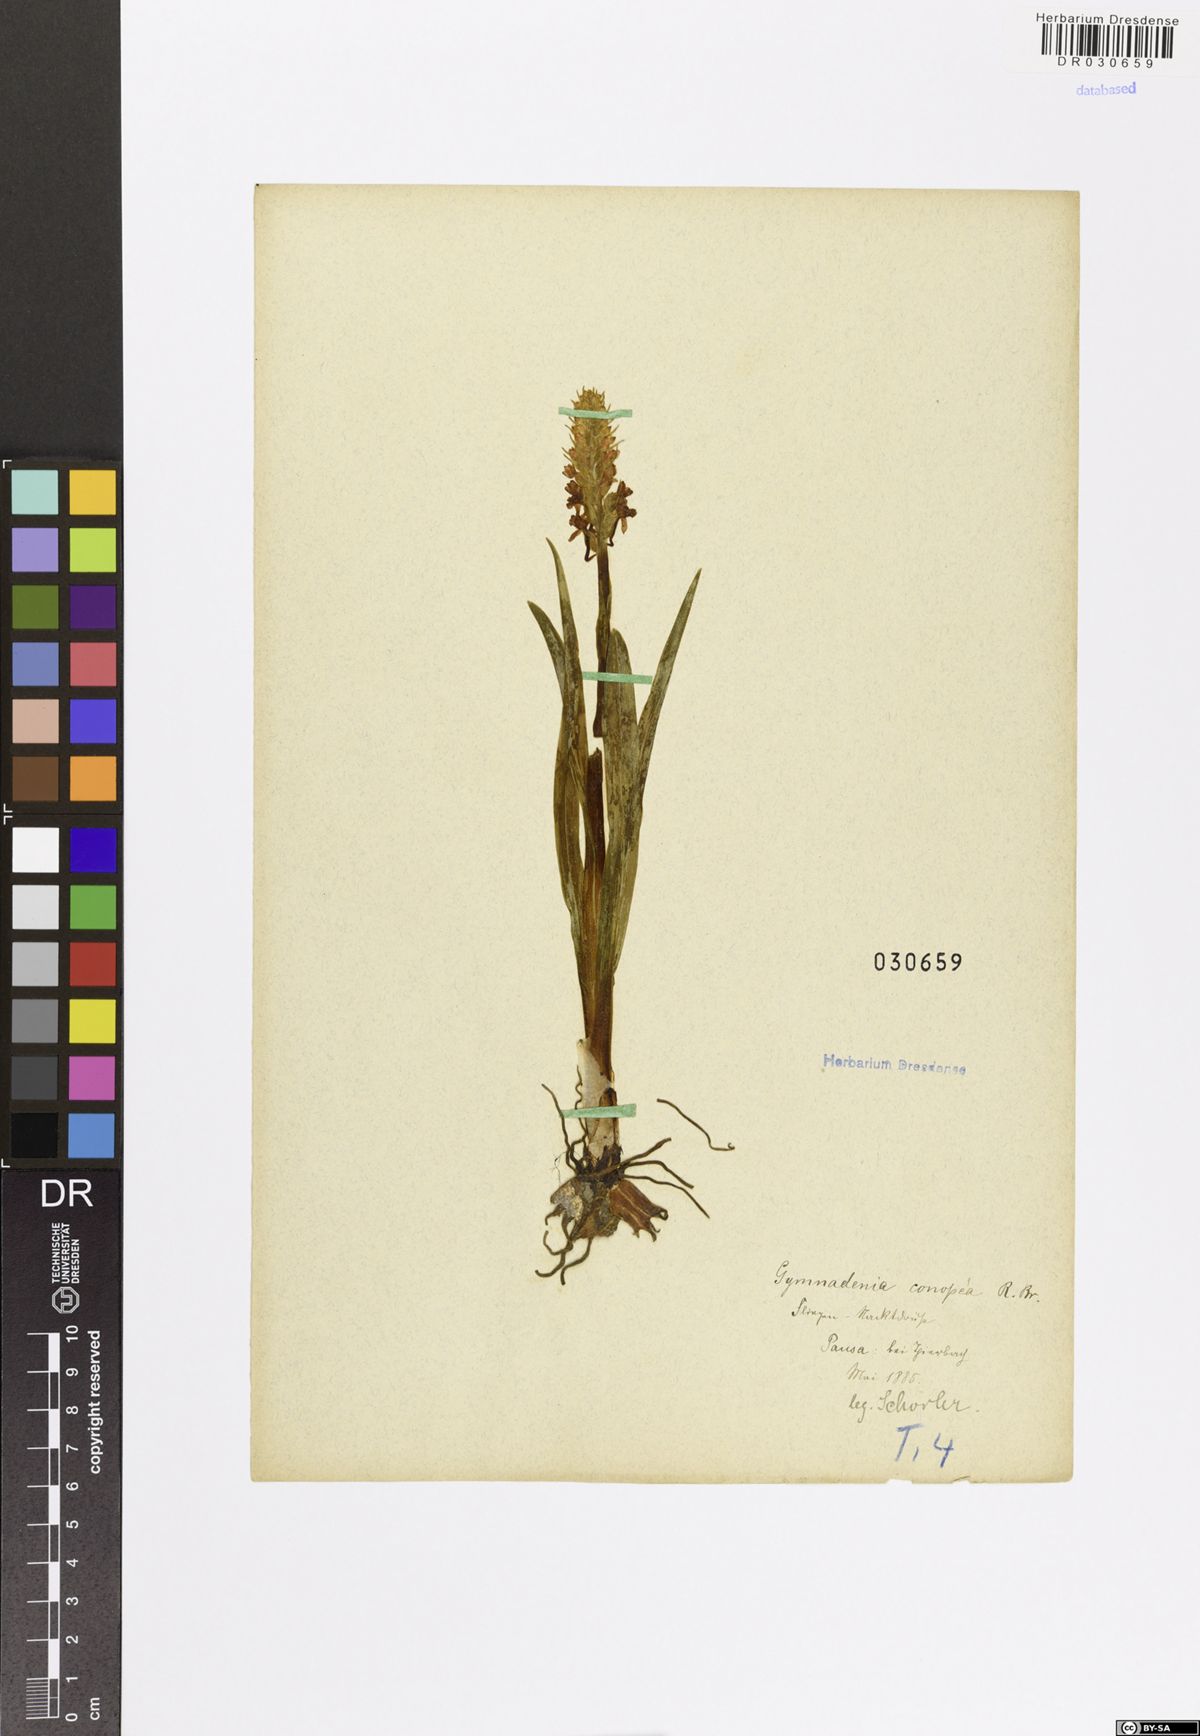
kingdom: Plantae
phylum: Tracheophyta
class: Liliopsida
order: Asparagales
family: Orchidaceae
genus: Gymnadenia
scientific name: Gymnadenia conopsea
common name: Fragrant orchid
